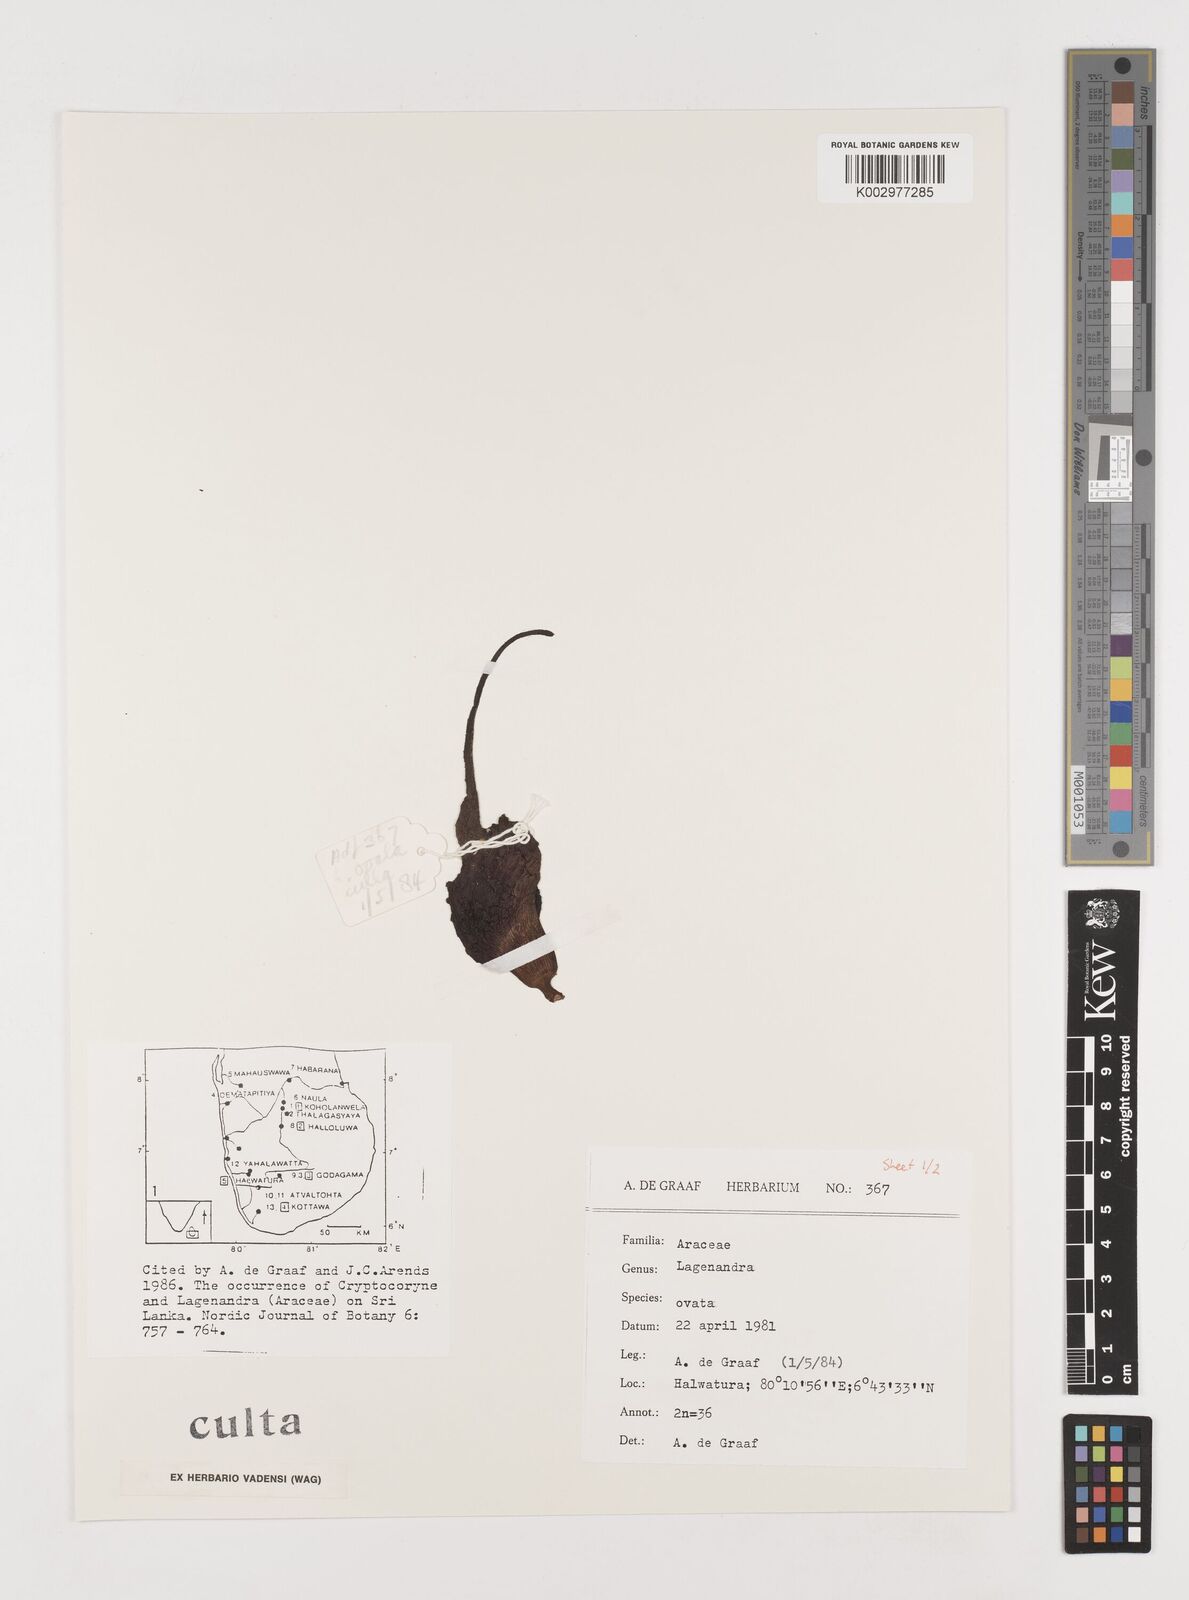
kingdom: Plantae
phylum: Tracheophyta
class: Liliopsida
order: Alismatales
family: Araceae
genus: Lagenandra
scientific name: Lagenandra ovata
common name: Malayan sword
